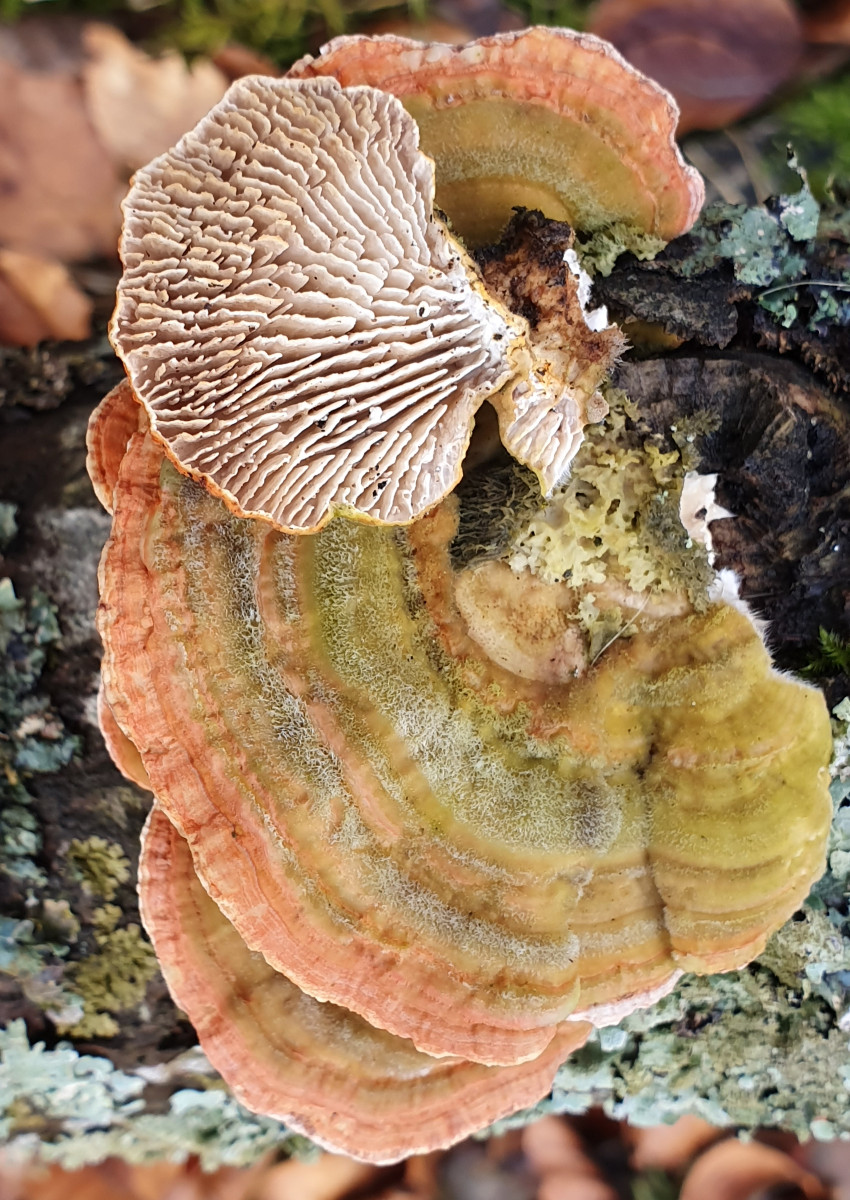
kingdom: Fungi
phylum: Basidiomycota
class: Agaricomycetes
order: Polyporales
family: Polyporaceae
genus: Lenzites
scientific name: Lenzites betulinus
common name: birke-læderporesvamp
